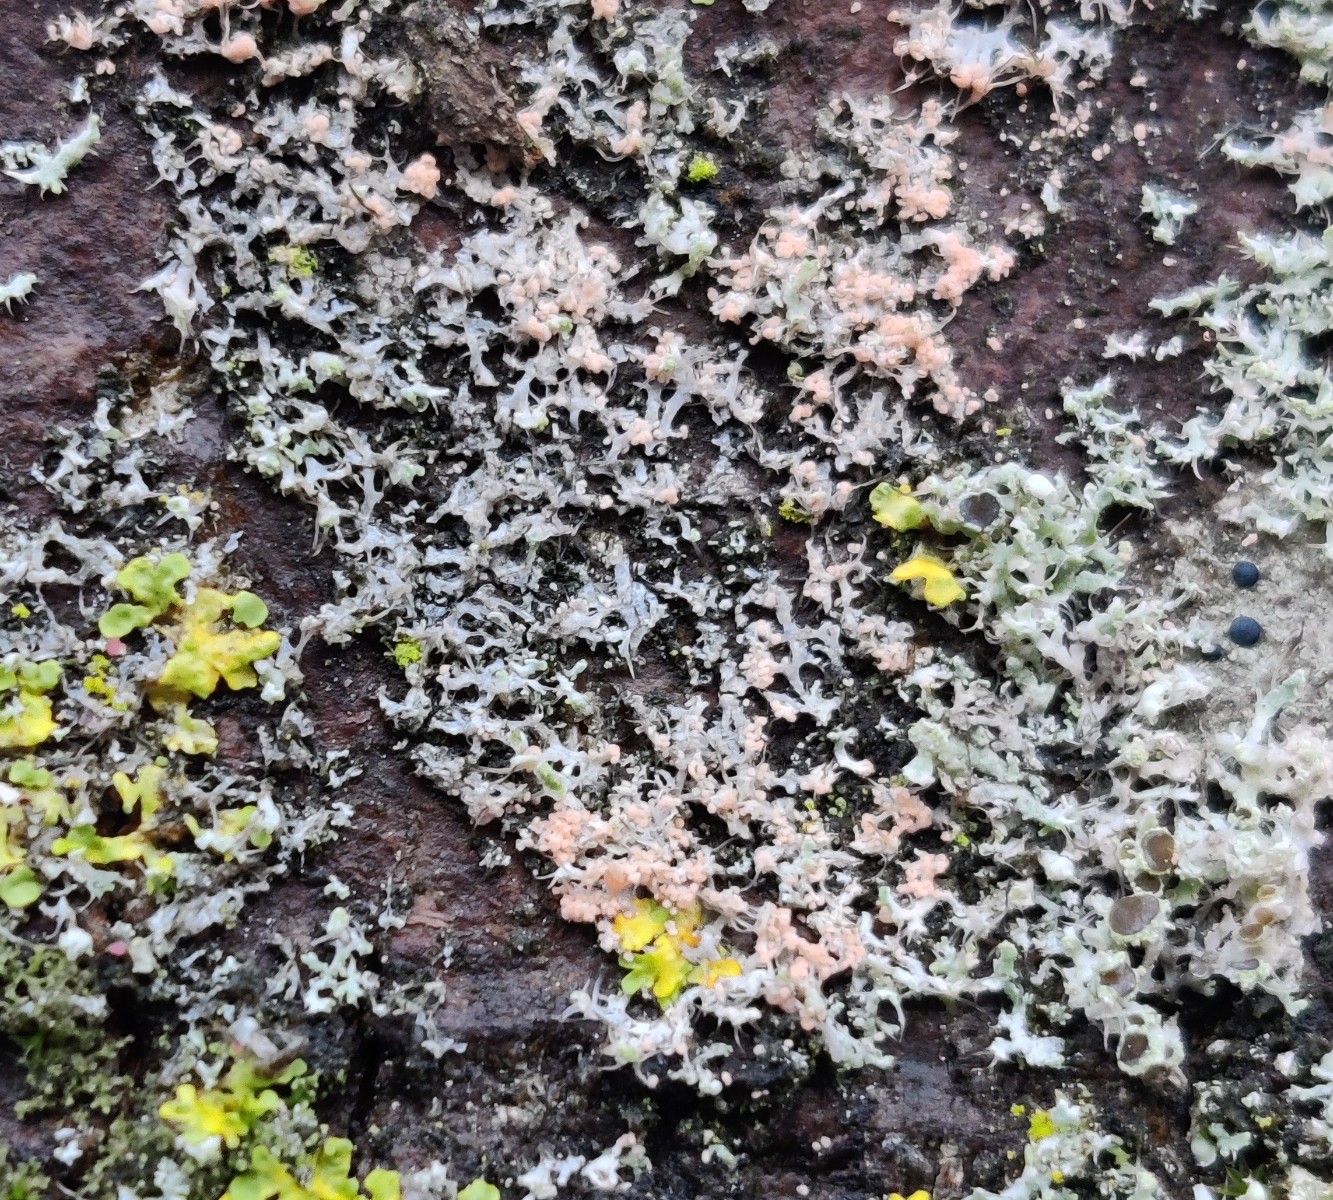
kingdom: Fungi
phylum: Basidiomycota
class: Agaricomycetes
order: Corticiales
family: Corticiaceae
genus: Erythricium
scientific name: Erythricium aurantiacum
